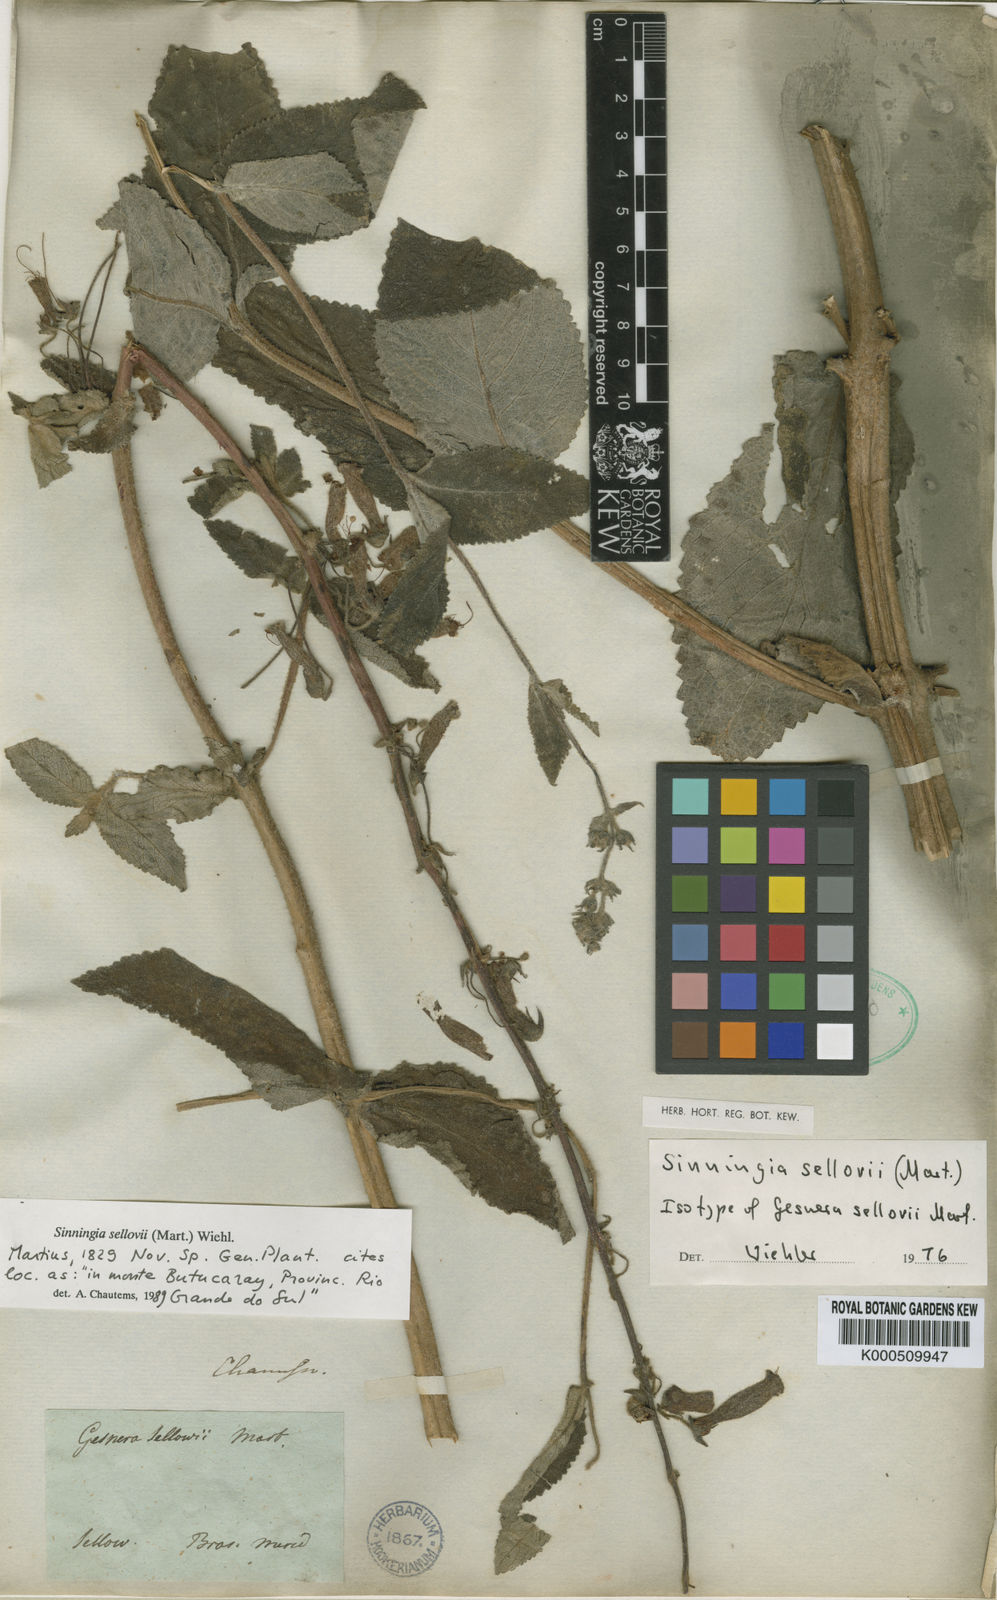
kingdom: Plantae
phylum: Tracheophyta
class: Magnoliopsida
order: Lamiales
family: Gesneriaceae
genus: Sinningia
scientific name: Sinningia sellovii
